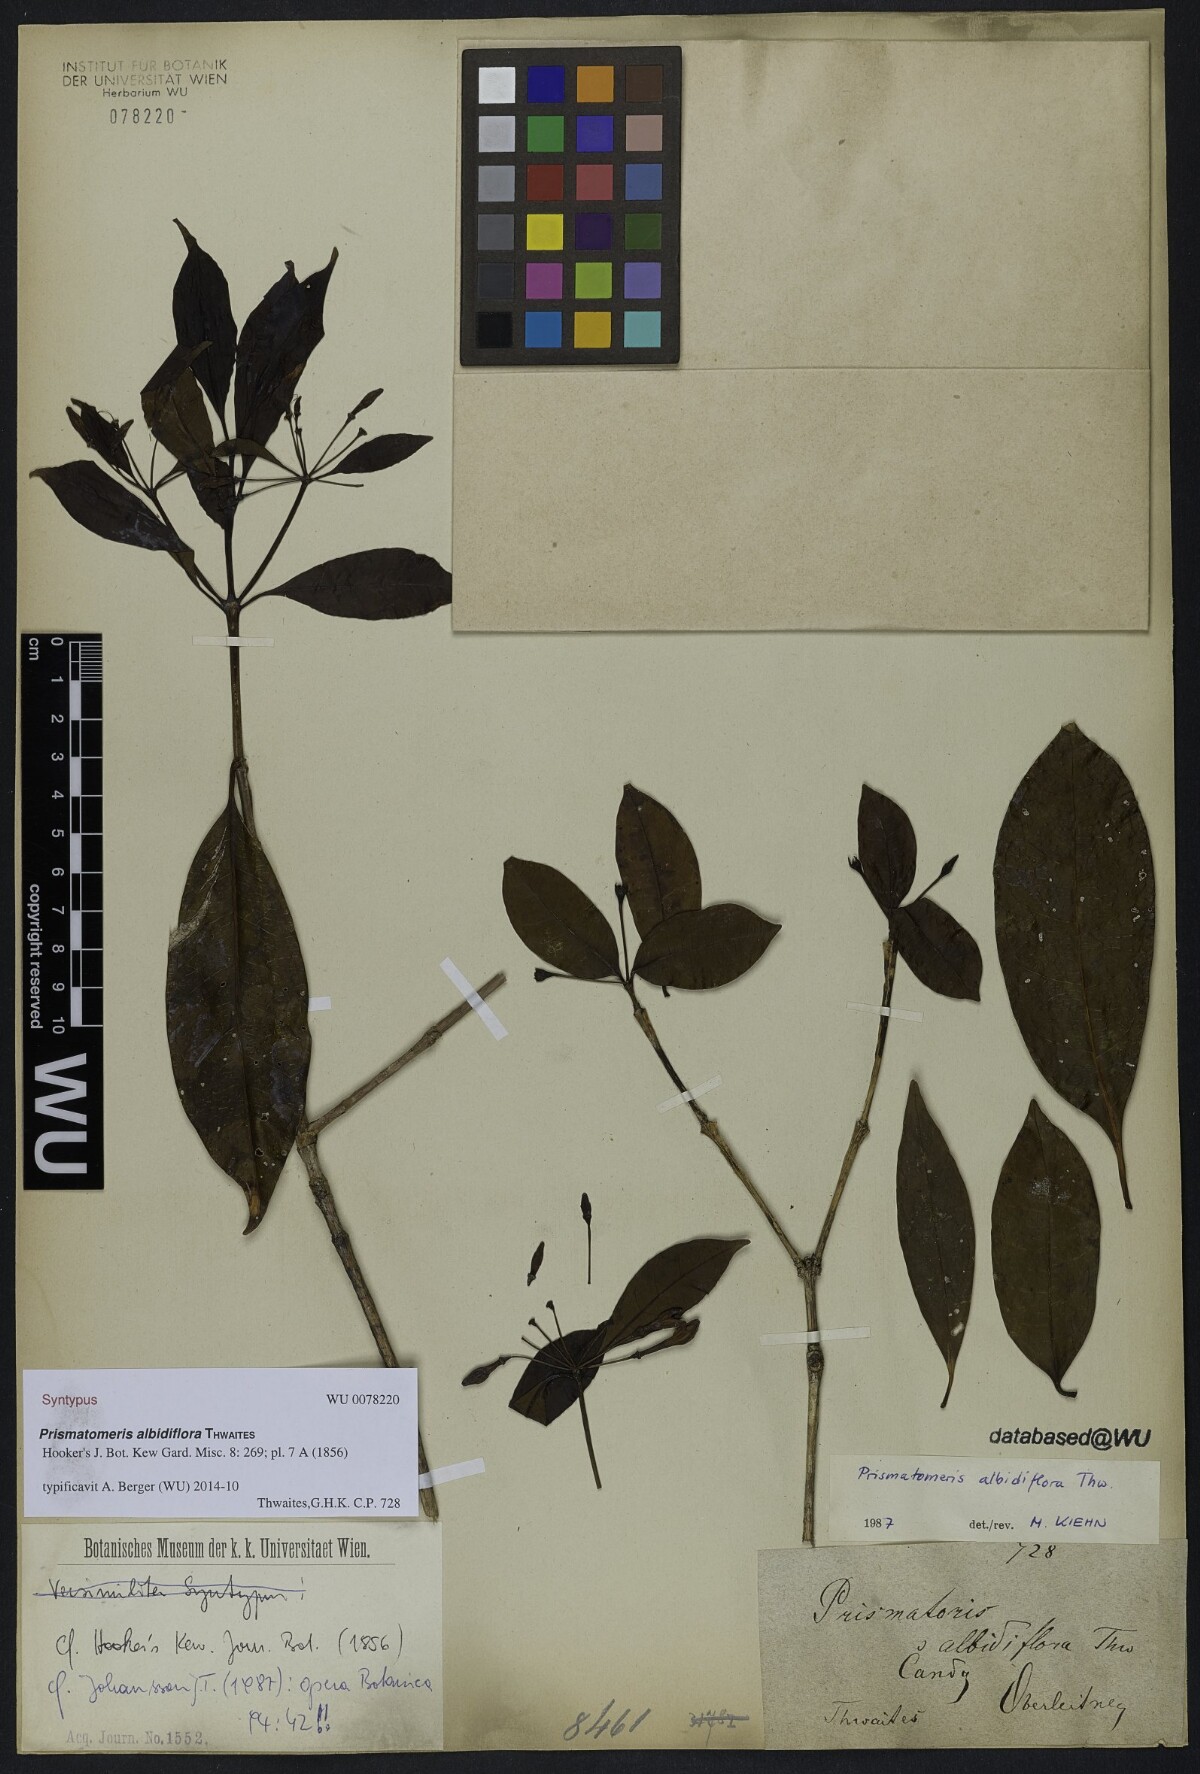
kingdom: Plantae
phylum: Tracheophyta
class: Magnoliopsida
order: Gentianales
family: Rubiaceae
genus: Prismatomeris
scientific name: Prismatomeris albidiflora
